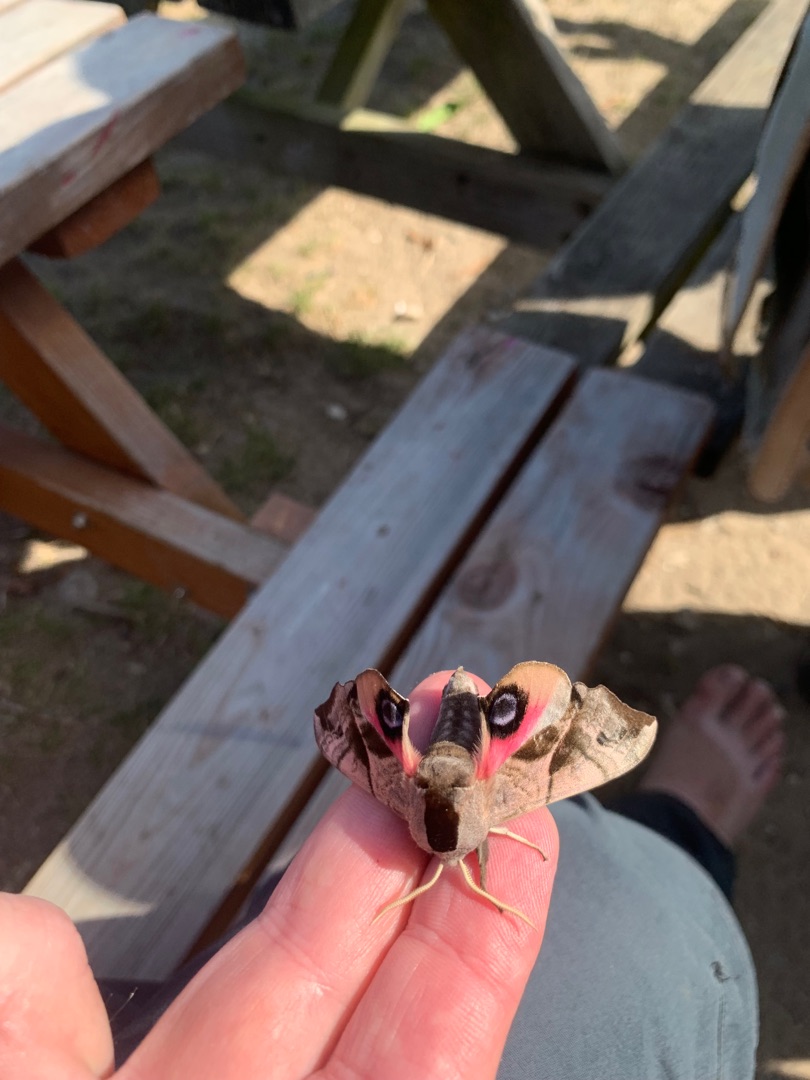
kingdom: Animalia
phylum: Arthropoda
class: Insecta
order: Lepidoptera
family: Sphingidae
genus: Smerinthus
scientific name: Smerinthus ocellata
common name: Aftenpåfugleøje
